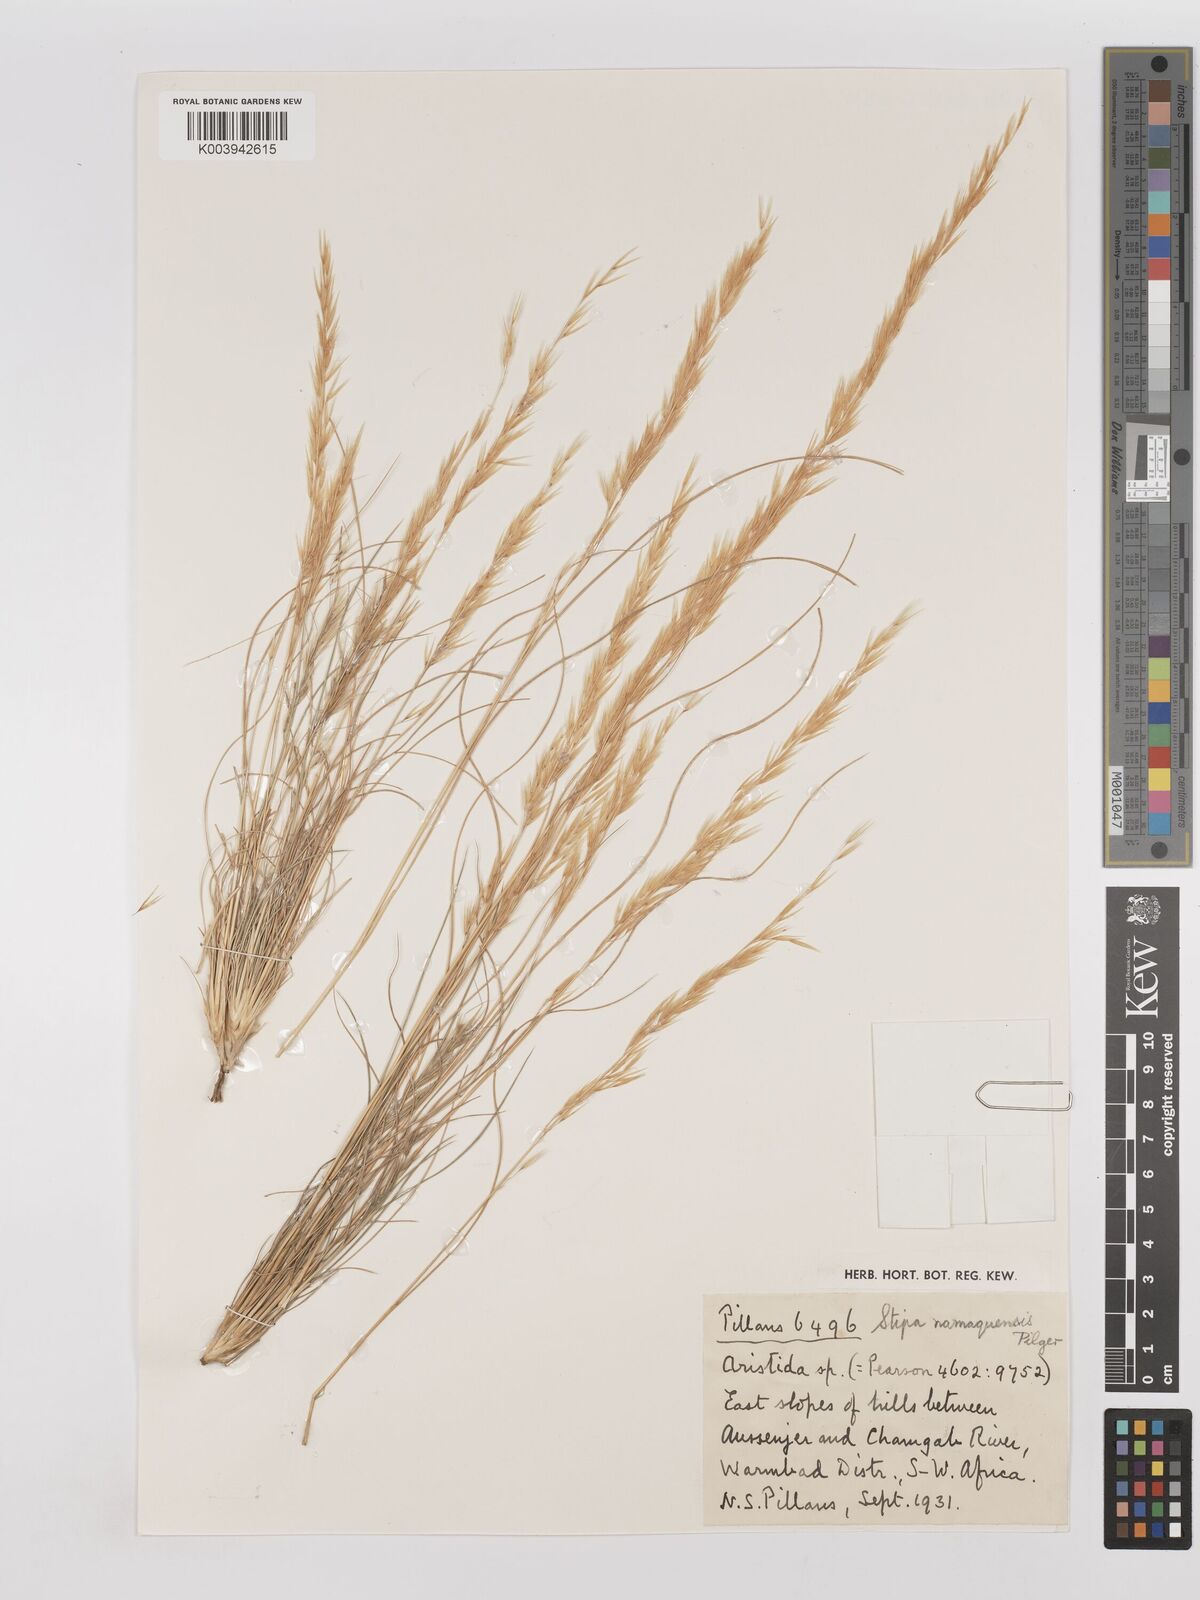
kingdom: Plantae
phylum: Tracheophyta
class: Liliopsida
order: Poales
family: Poaceae
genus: Stipagrostis
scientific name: Stipagrostis anomala
